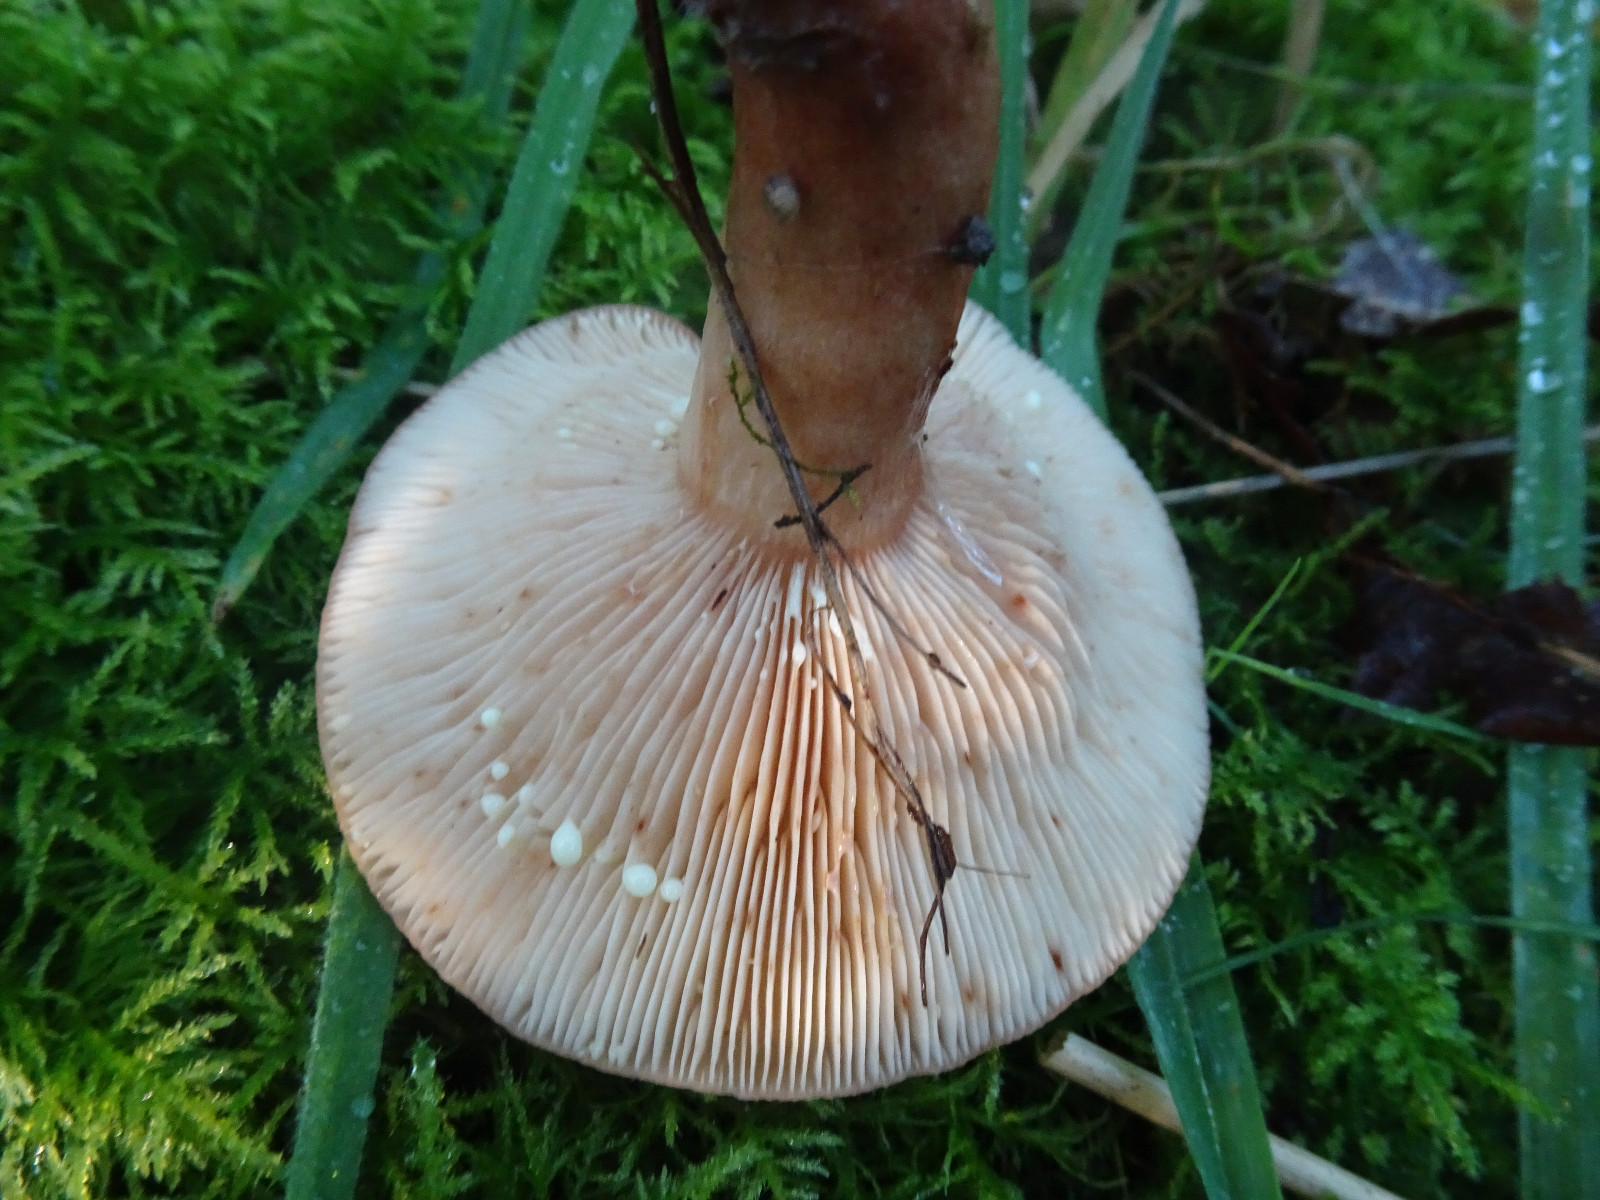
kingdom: Fungi
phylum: Basidiomycota
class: Agaricomycetes
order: Russulales
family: Russulaceae
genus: Lactarius
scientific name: Lactarius quietus
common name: ege-mælkehat
